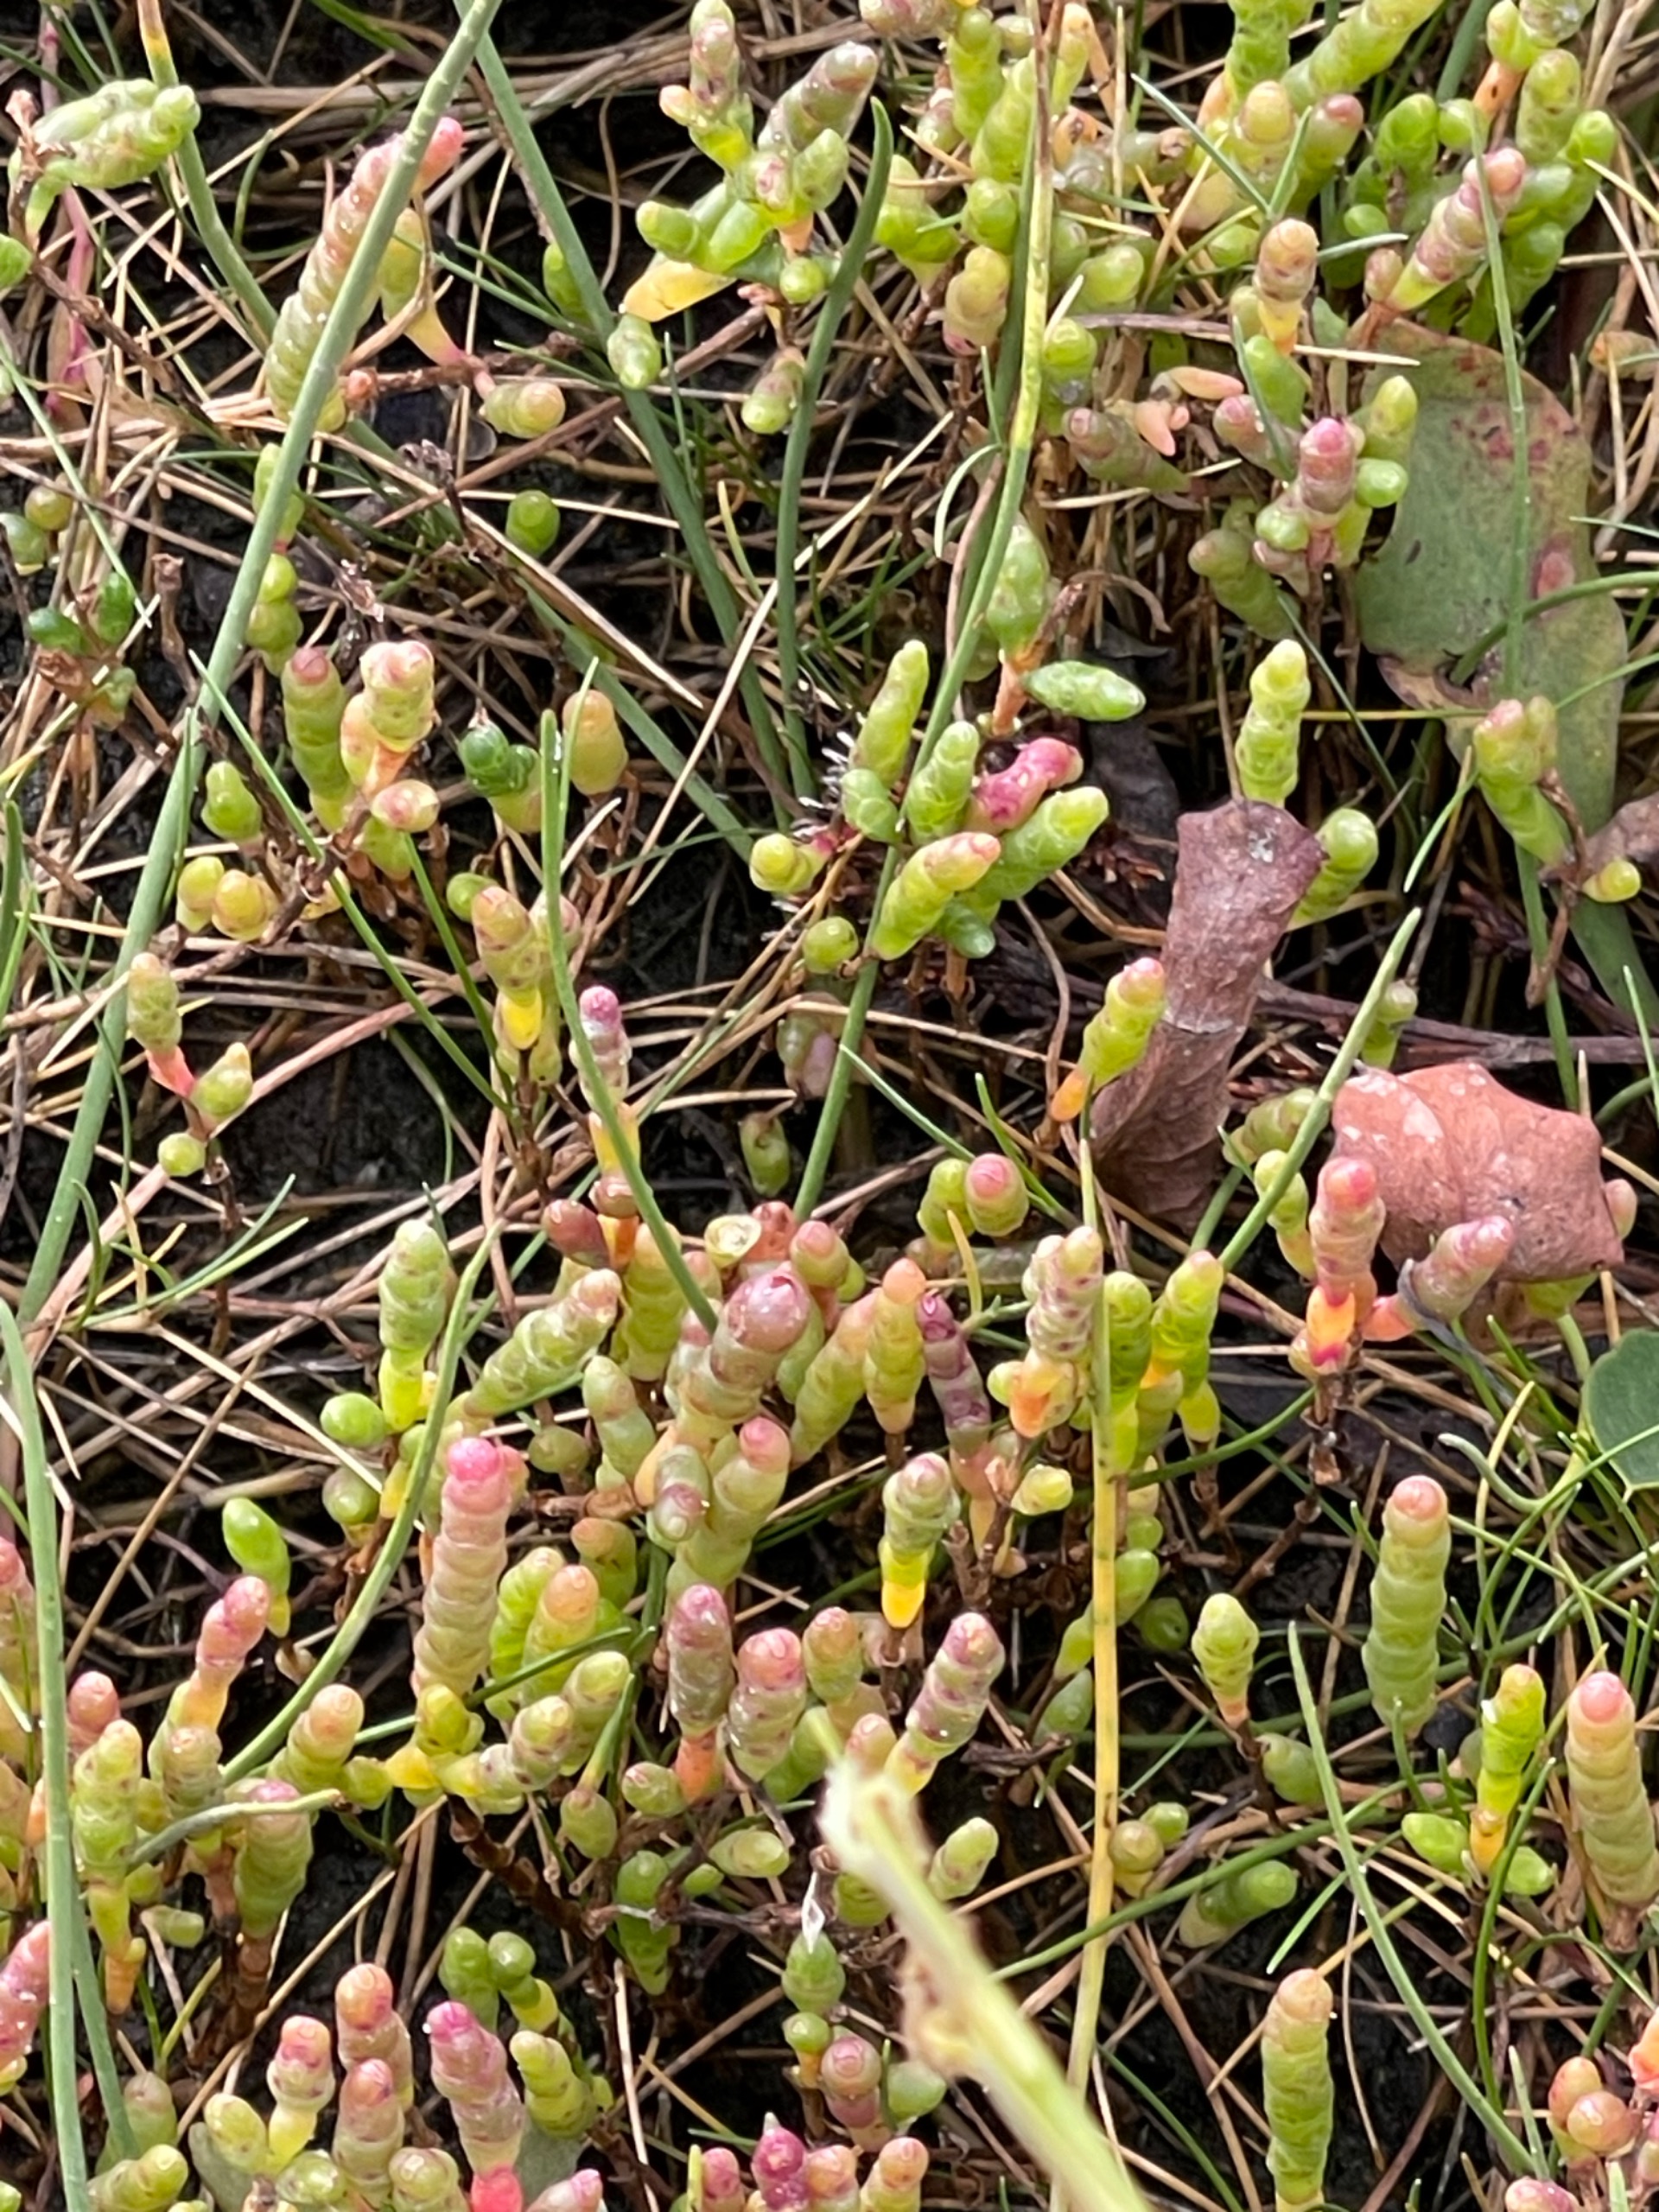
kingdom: Plantae
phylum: Tracheophyta
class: Magnoliopsida
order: Caryophyllales
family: Amaranthaceae
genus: Salicornia
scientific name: Salicornia europaea
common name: Almindelig salturt
